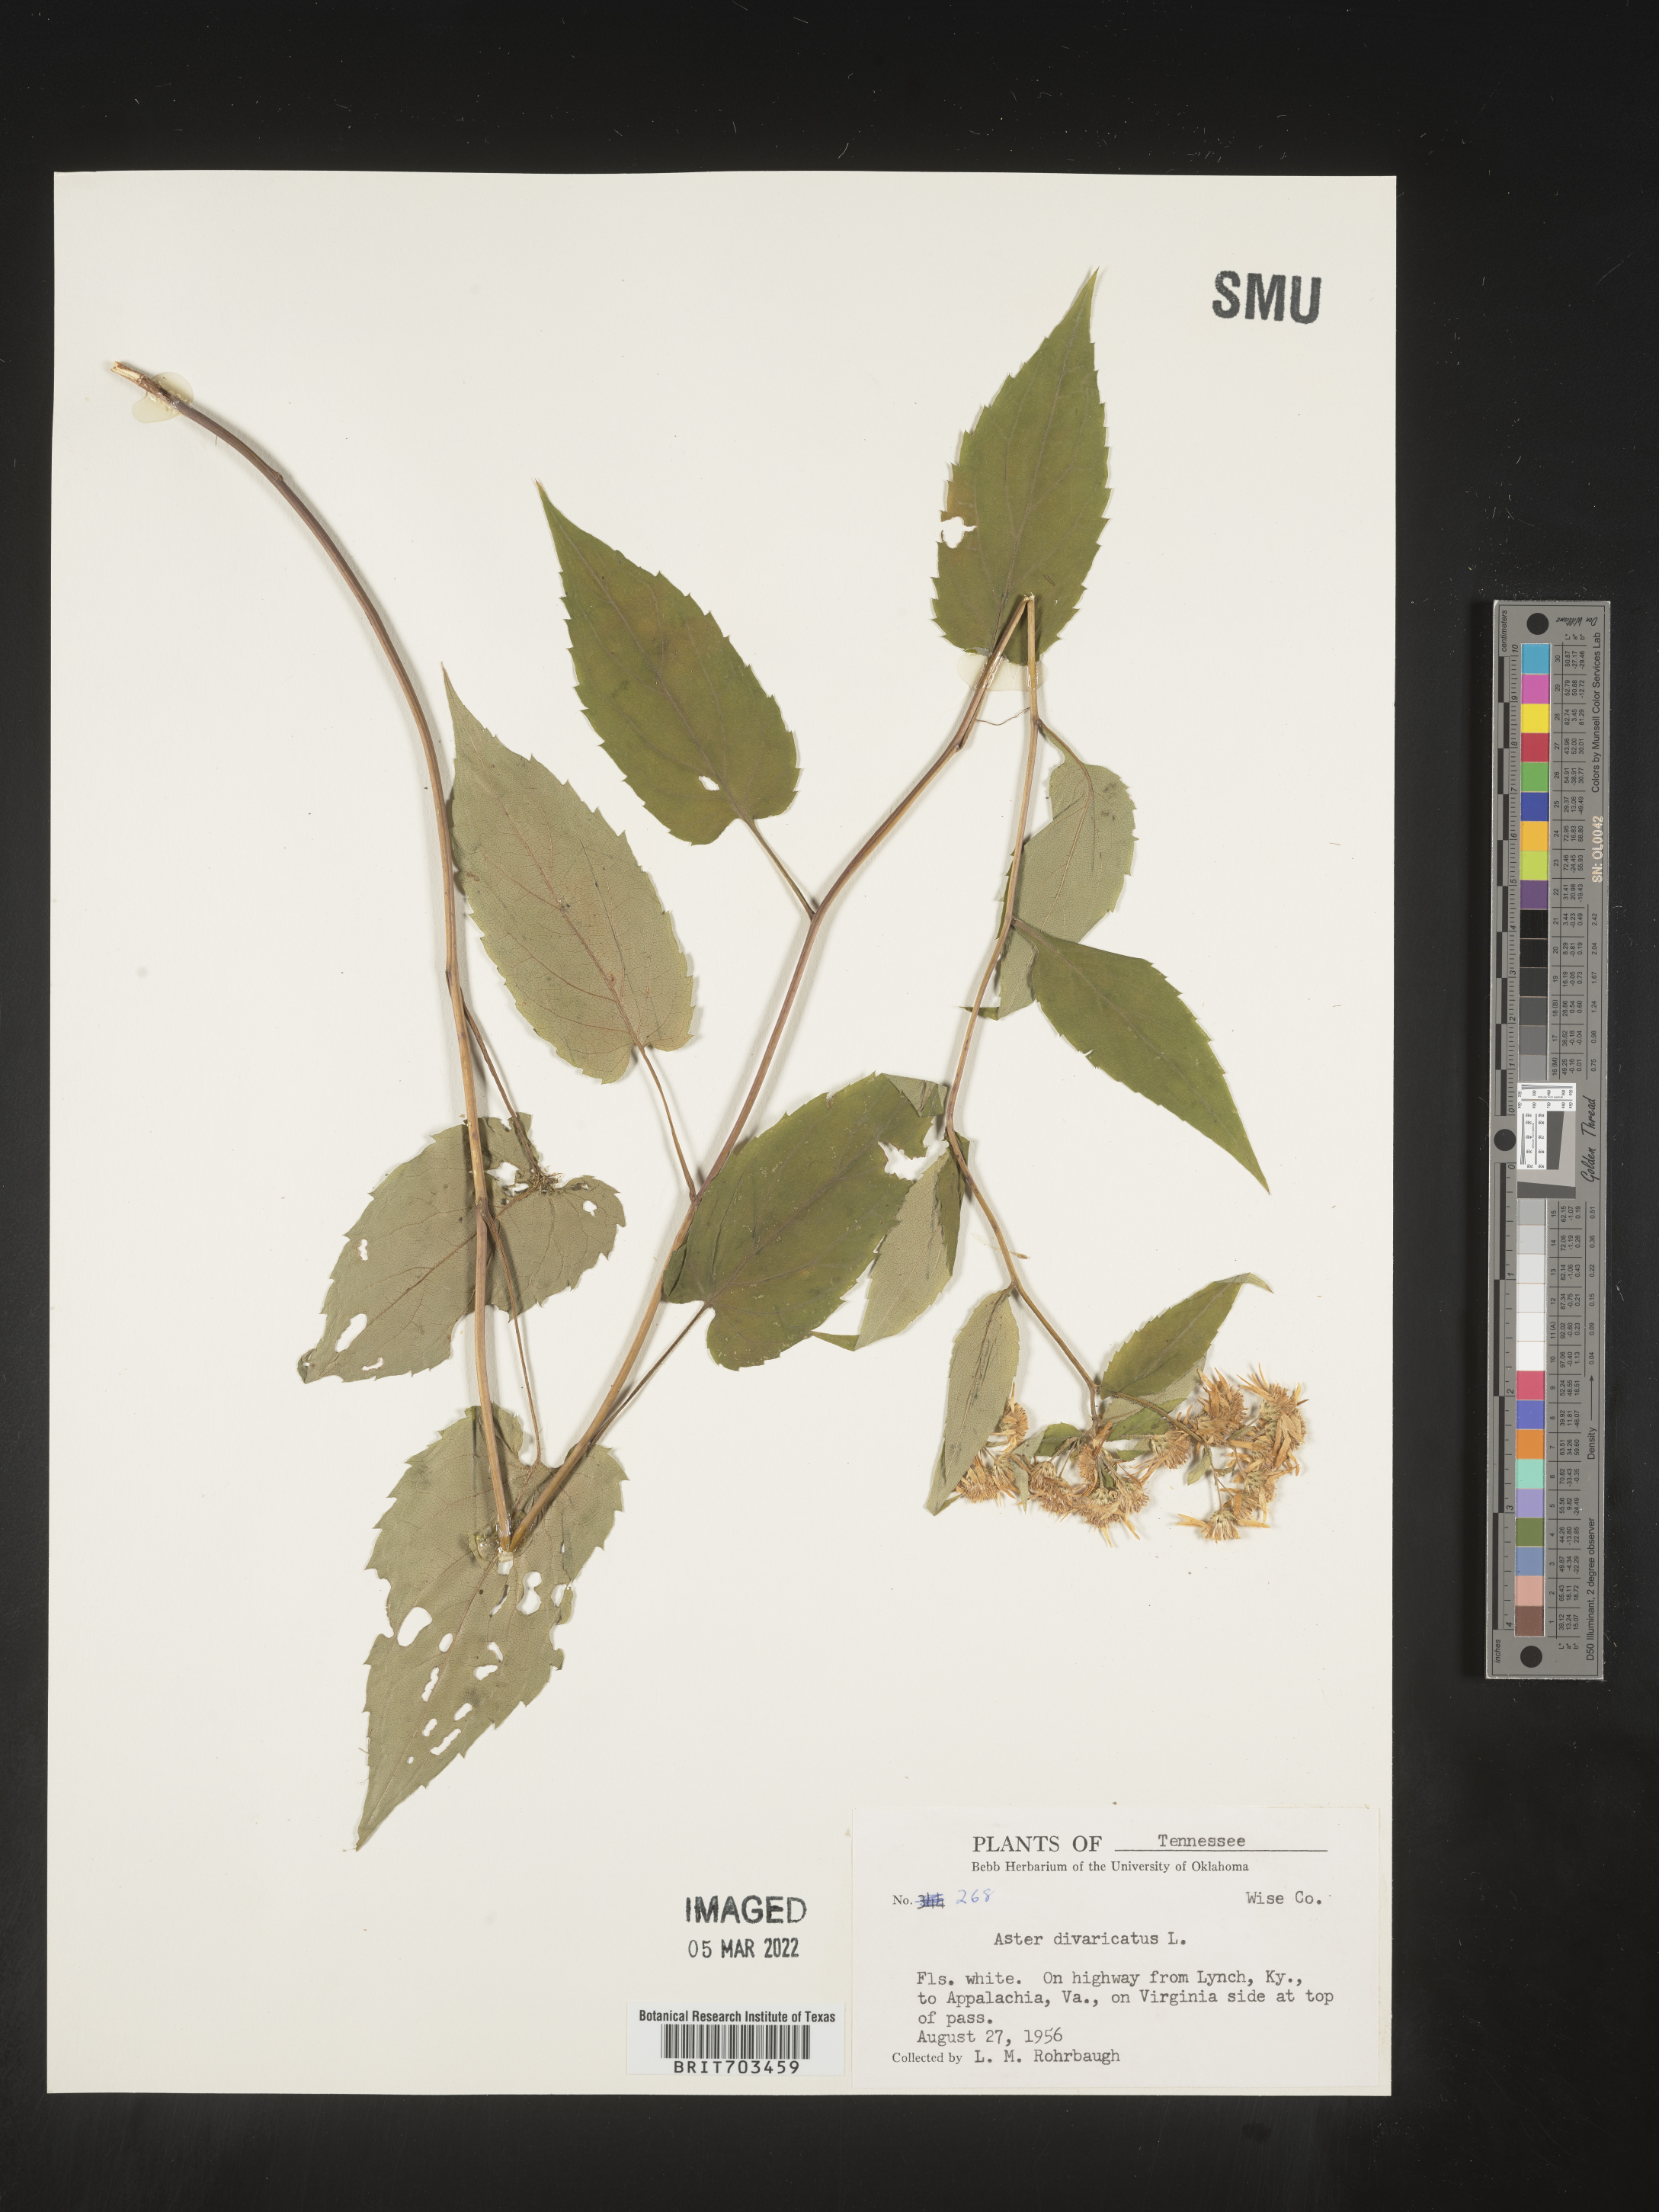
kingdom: Plantae
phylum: Tracheophyta
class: Magnoliopsida
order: Asterales
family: Asteraceae
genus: Eurybia
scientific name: Eurybia divaricata
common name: White wood aster
